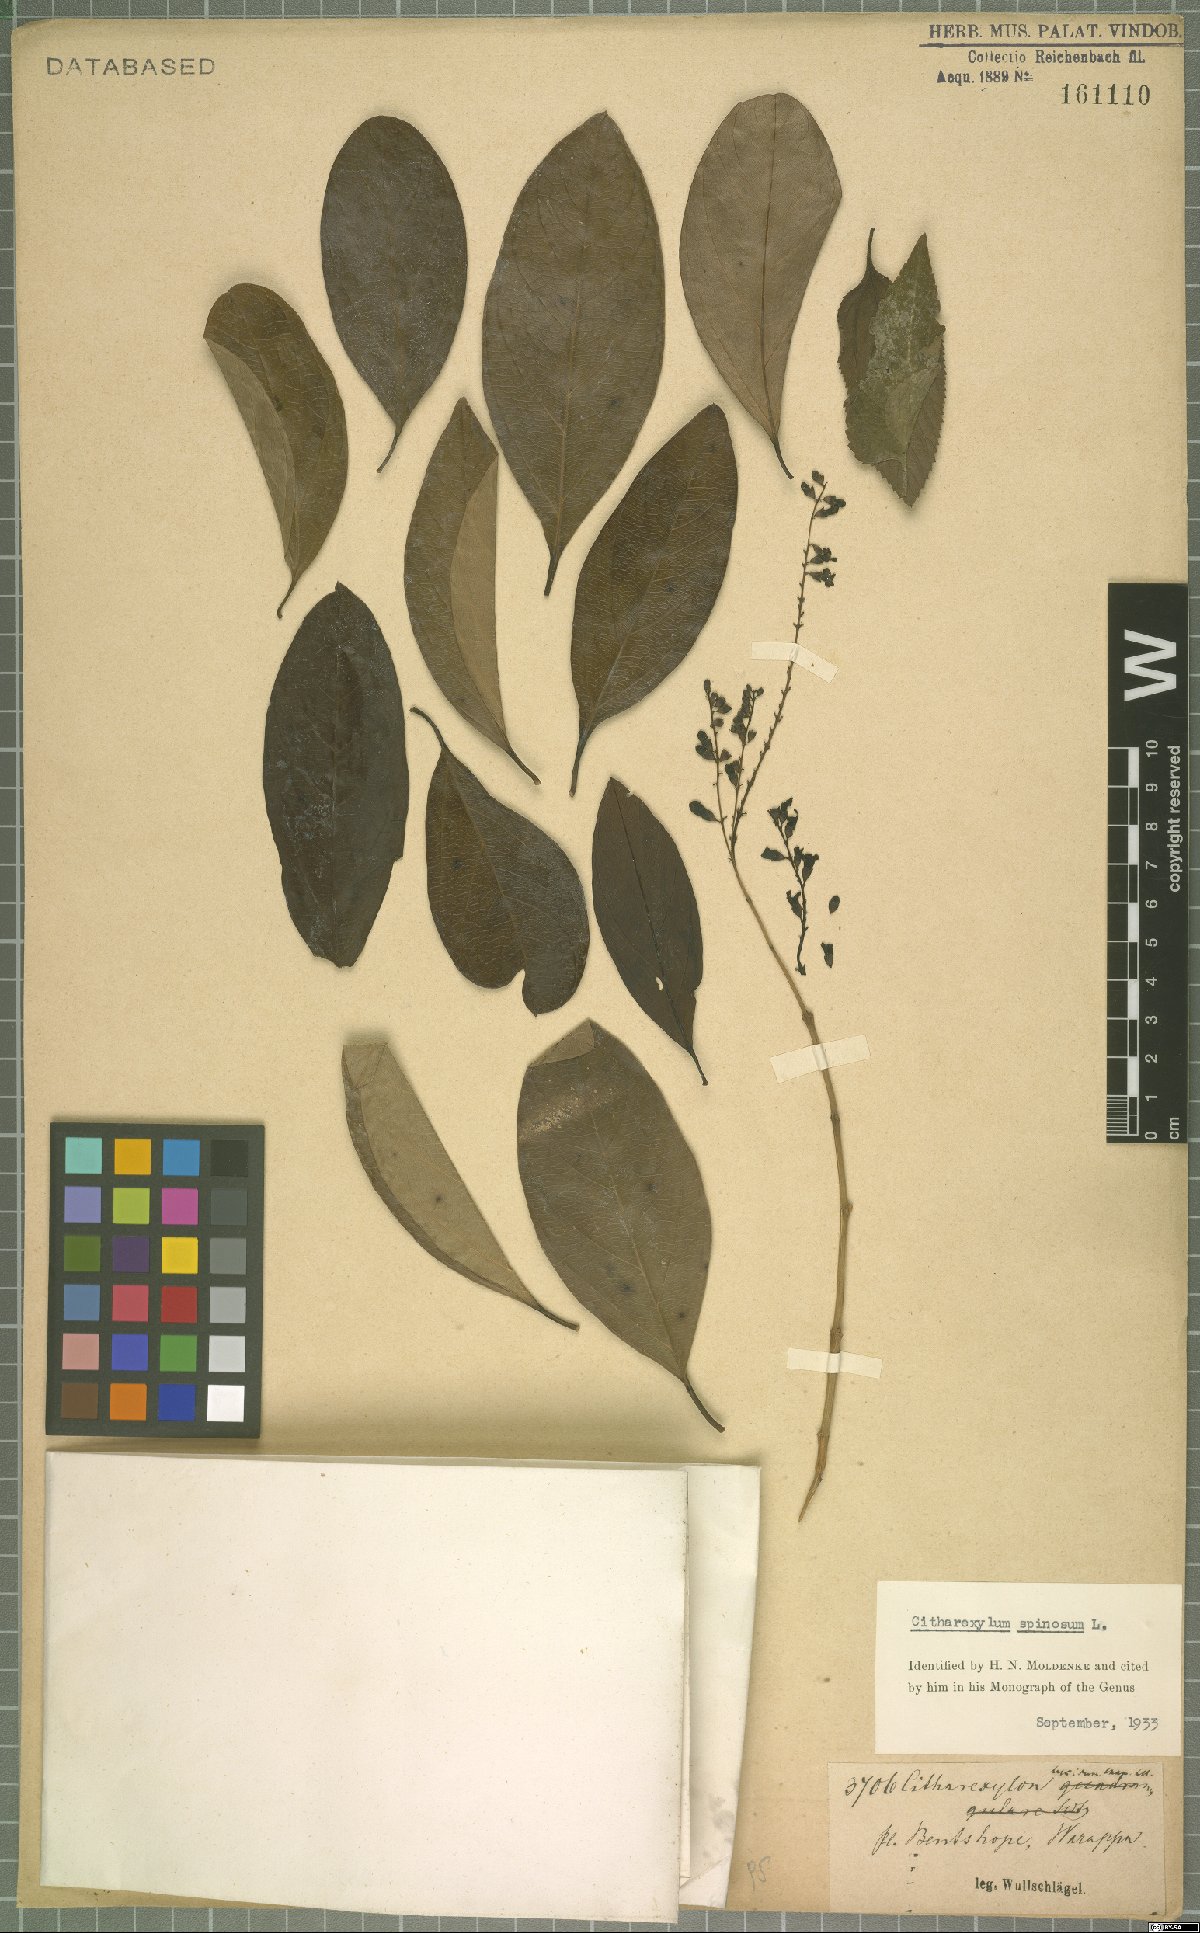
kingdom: Plantae
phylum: Tracheophyta
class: Magnoliopsida
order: Lamiales
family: Verbenaceae
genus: Citharexylum
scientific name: Citharexylum spinosum
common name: Fiddlewood
